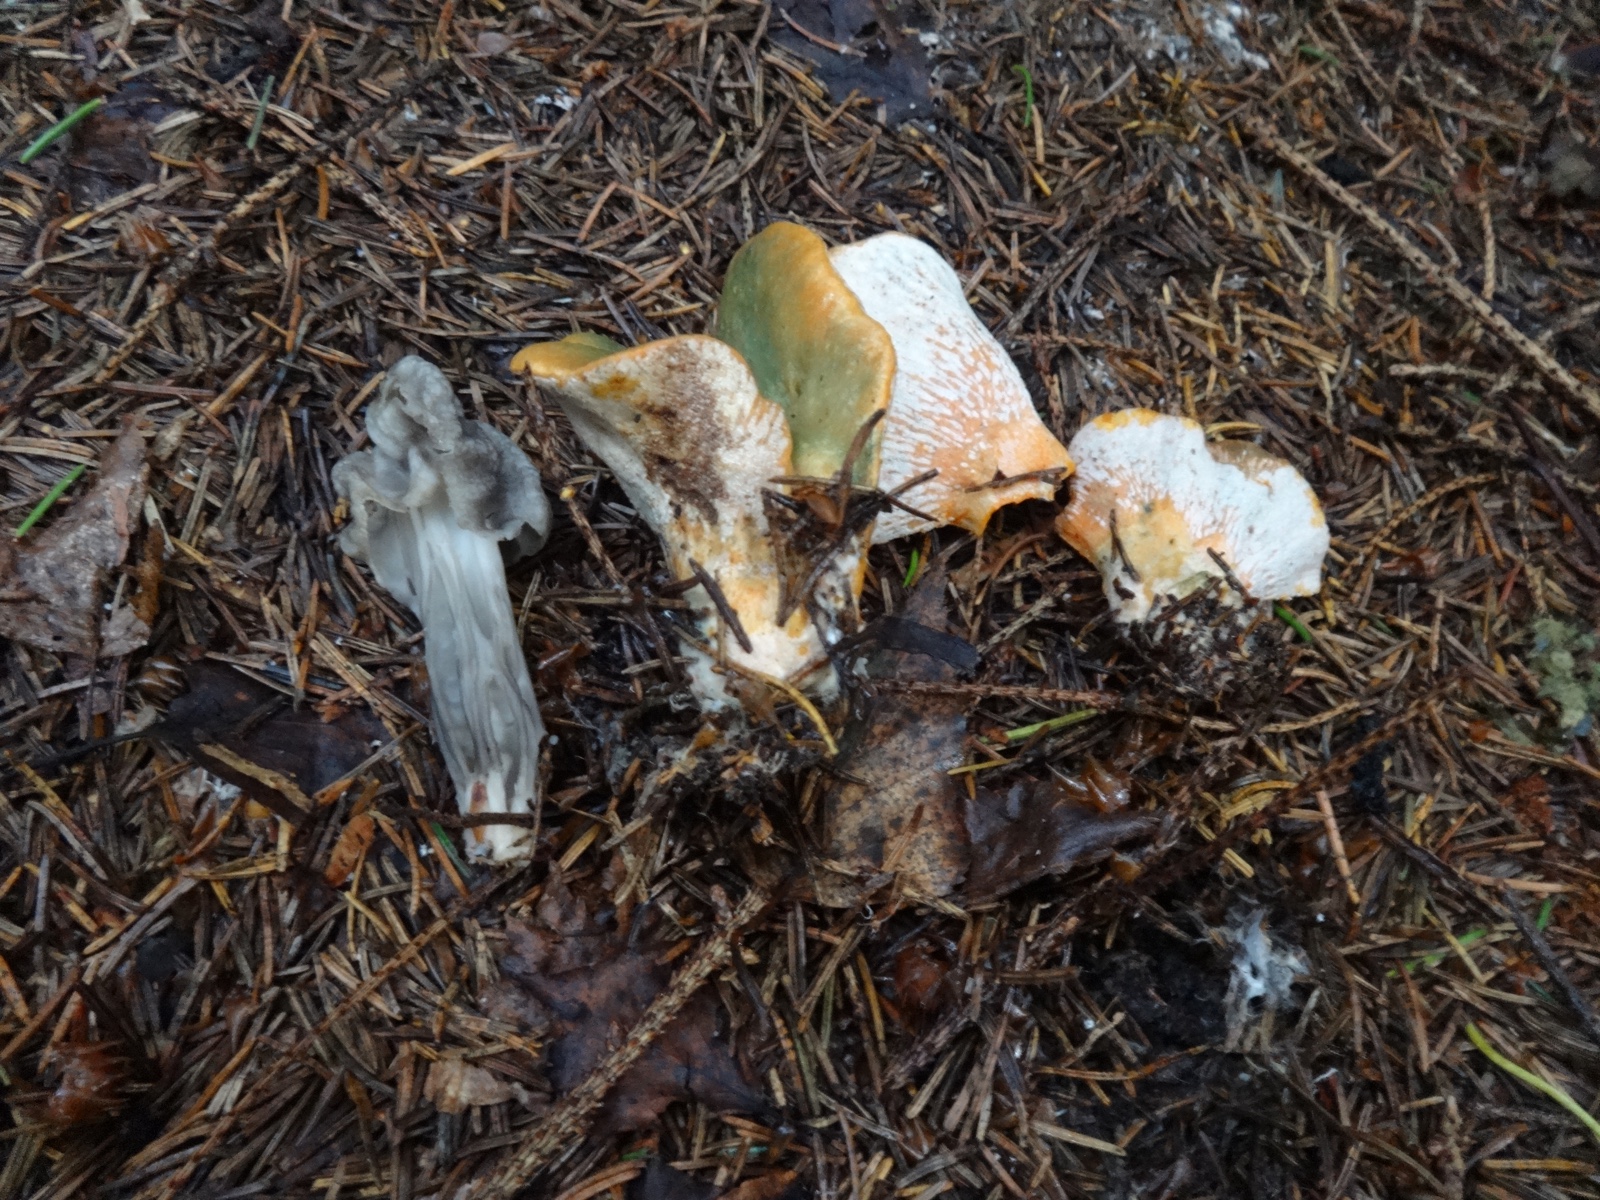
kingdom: Fungi
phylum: Ascomycota
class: Sordariomycetes
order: Hypocreales
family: Hypocreaceae
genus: Hypomyces
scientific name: Hypomyces lateritius
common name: mælkehat-snylteskorpe
